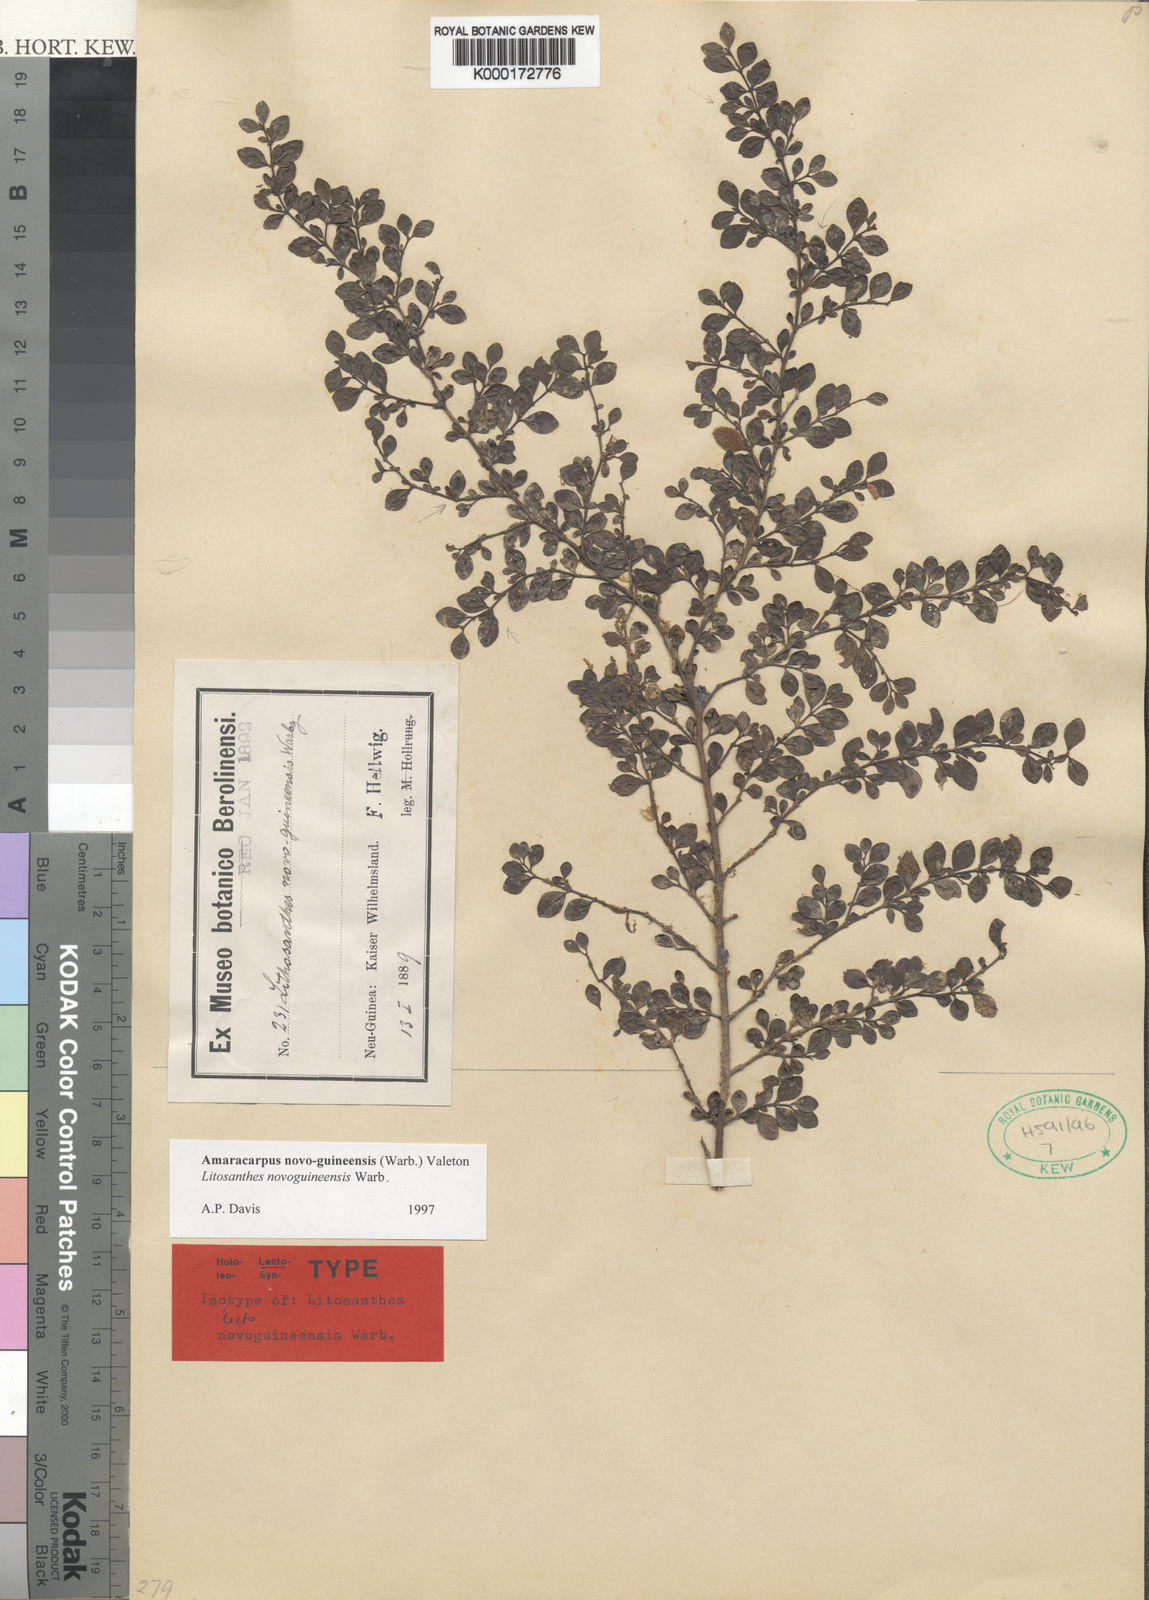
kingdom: Plantae
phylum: Tracheophyta
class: Magnoliopsida
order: Gentianales
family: Rubiaceae
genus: Amaracarpus
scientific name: Amaracarpus novoguineensis
